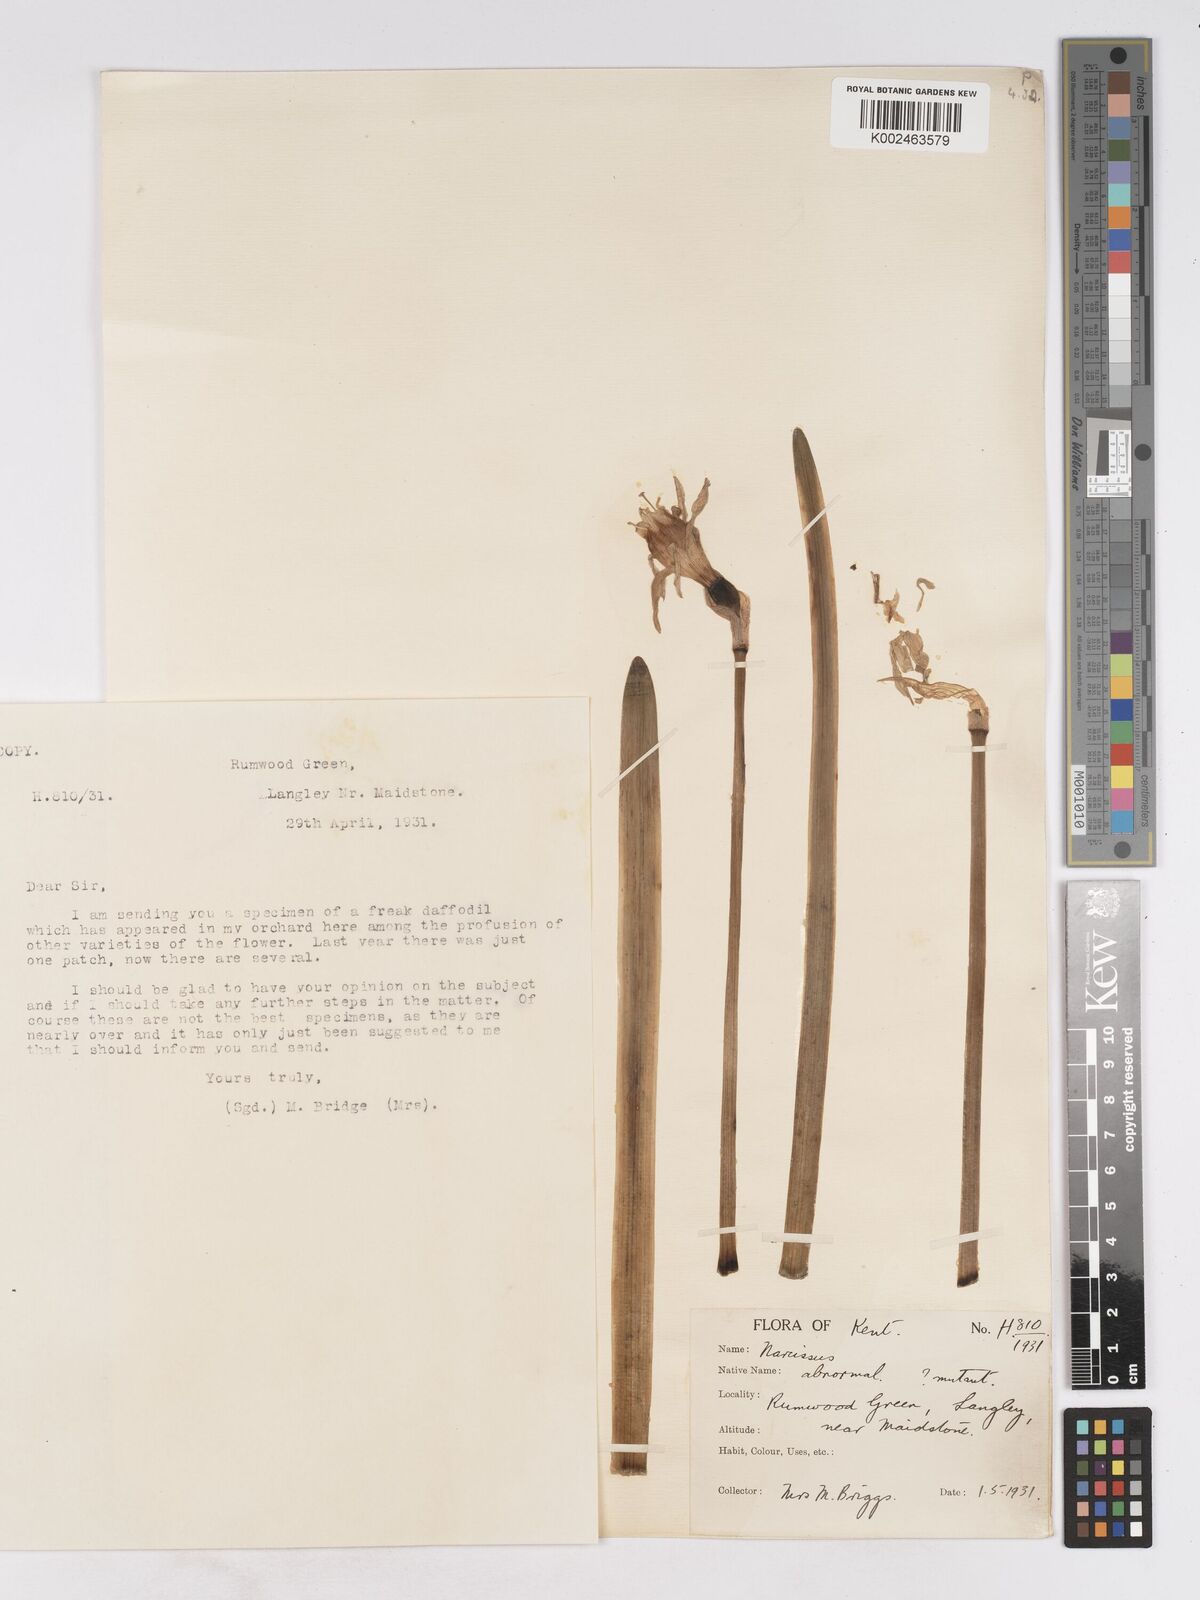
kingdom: Plantae
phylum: Tracheophyta
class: Liliopsida
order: Asparagales
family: Amaryllidaceae
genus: Narcissus
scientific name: Narcissus pseudonarcissus
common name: Daffodil
